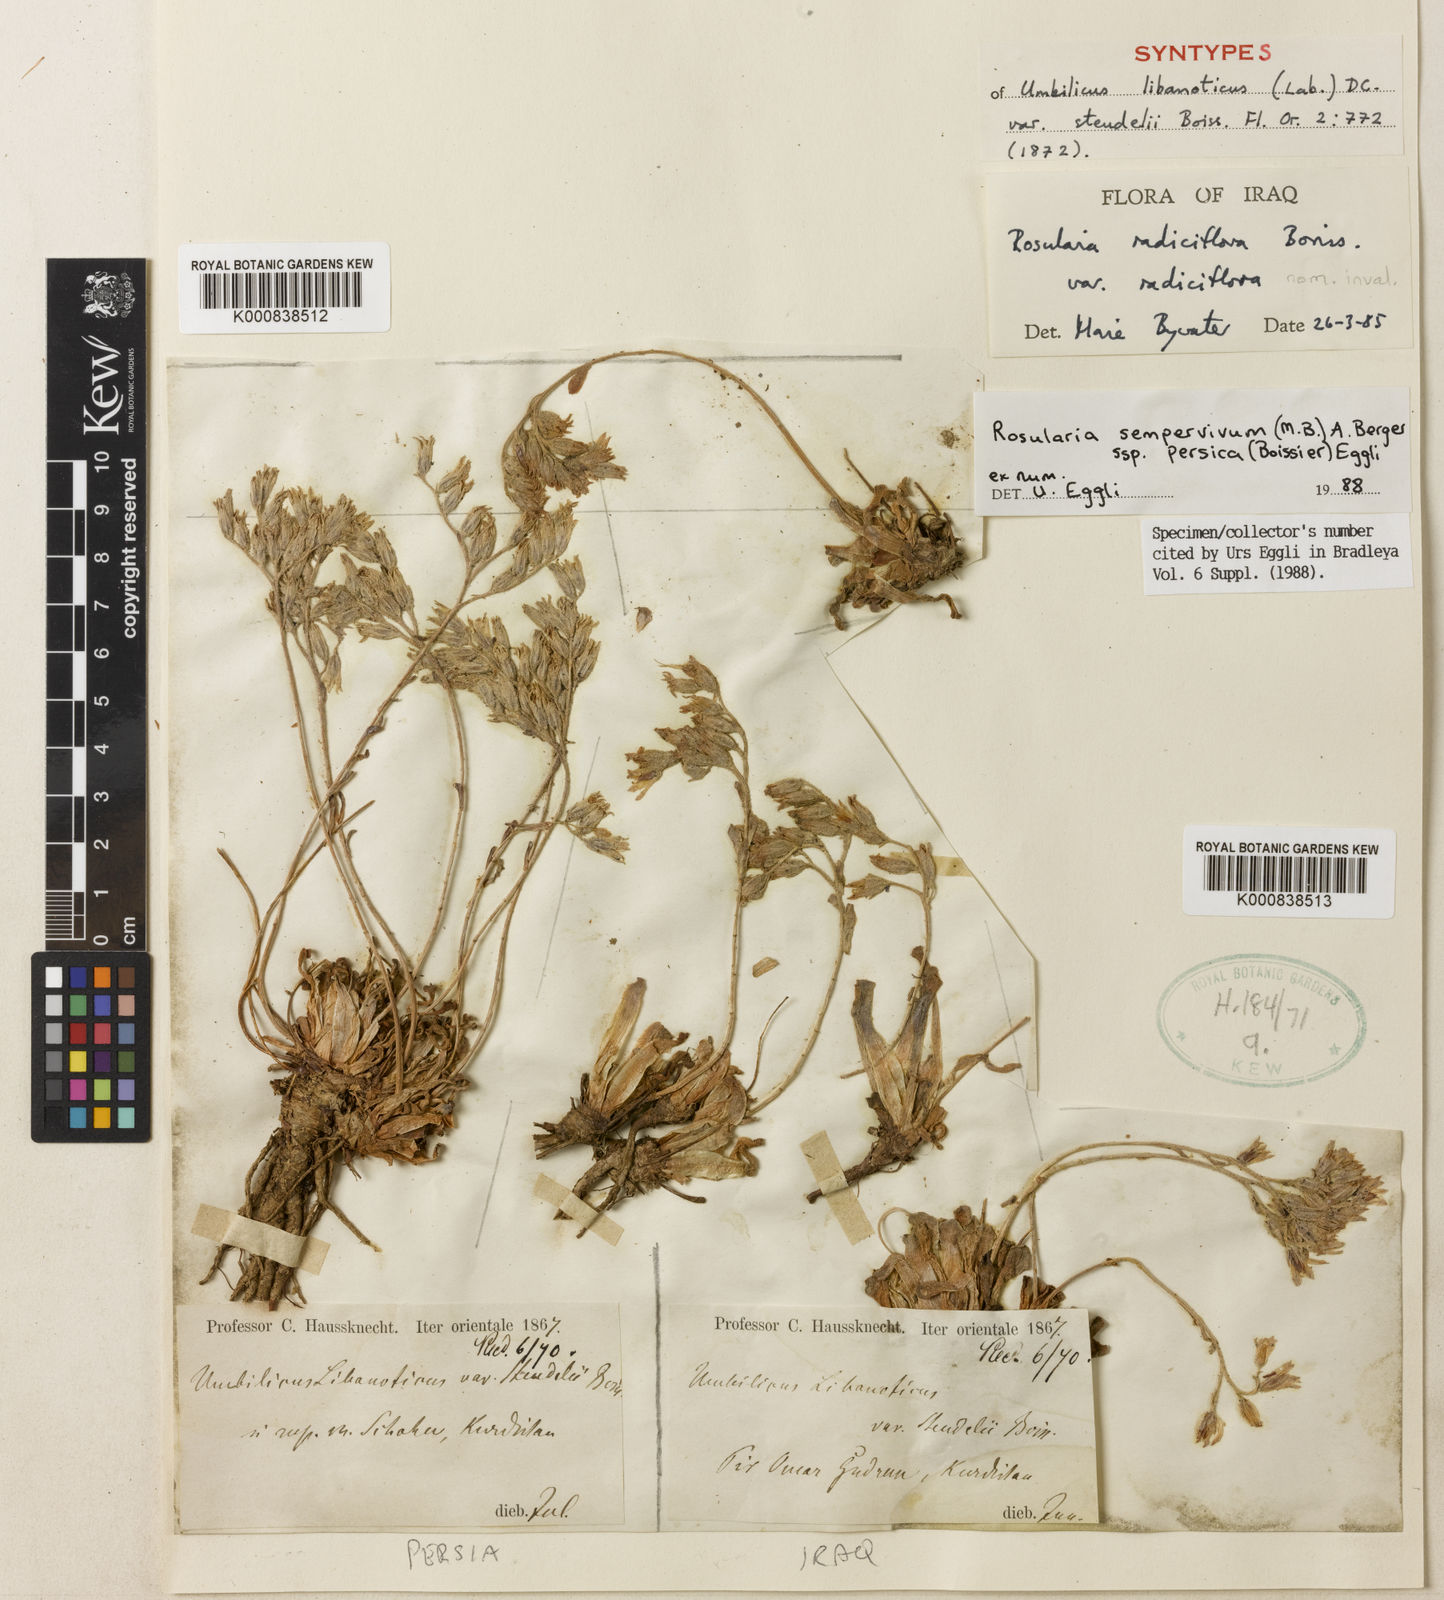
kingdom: Plantae
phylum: Tracheophyta
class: Magnoliopsida
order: Saxifragales
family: Crassulaceae
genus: Rosularia
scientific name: Rosularia sempervivum
